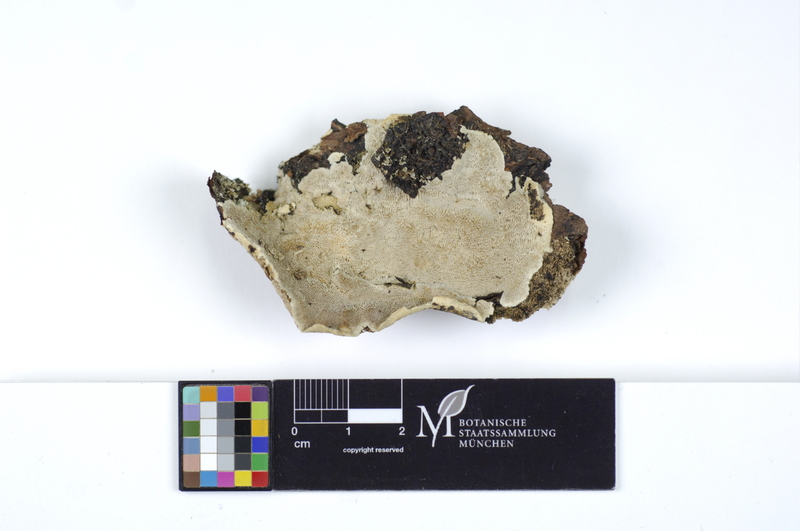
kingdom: Fungi
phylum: Basidiomycota
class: Agaricomycetes
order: Polyporales
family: Gelatoporiaceae
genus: Cinereomyces
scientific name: Cinereomyces lindbladii
